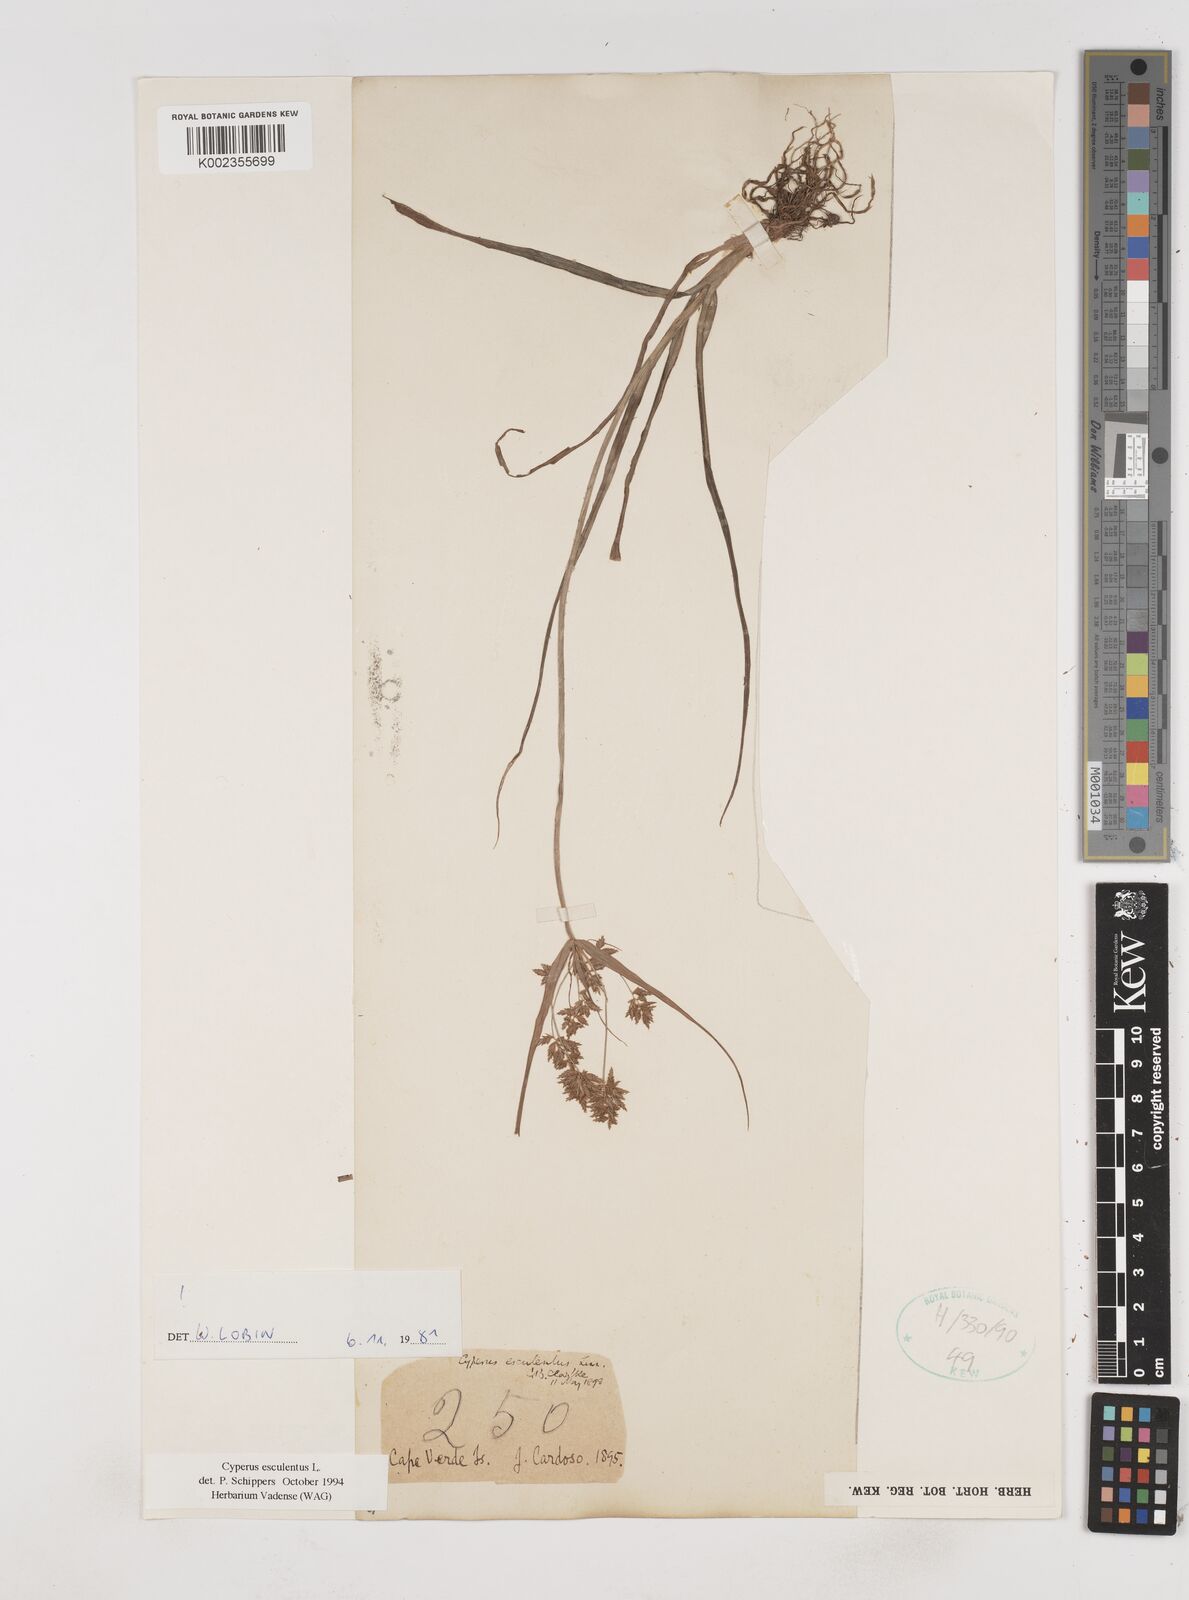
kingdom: Plantae
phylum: Tracheophyta
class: Liliopsida
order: Poales
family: Cyperaceae
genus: Cyperus
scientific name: Cyperus esculentus
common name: Yellow nutsedge
